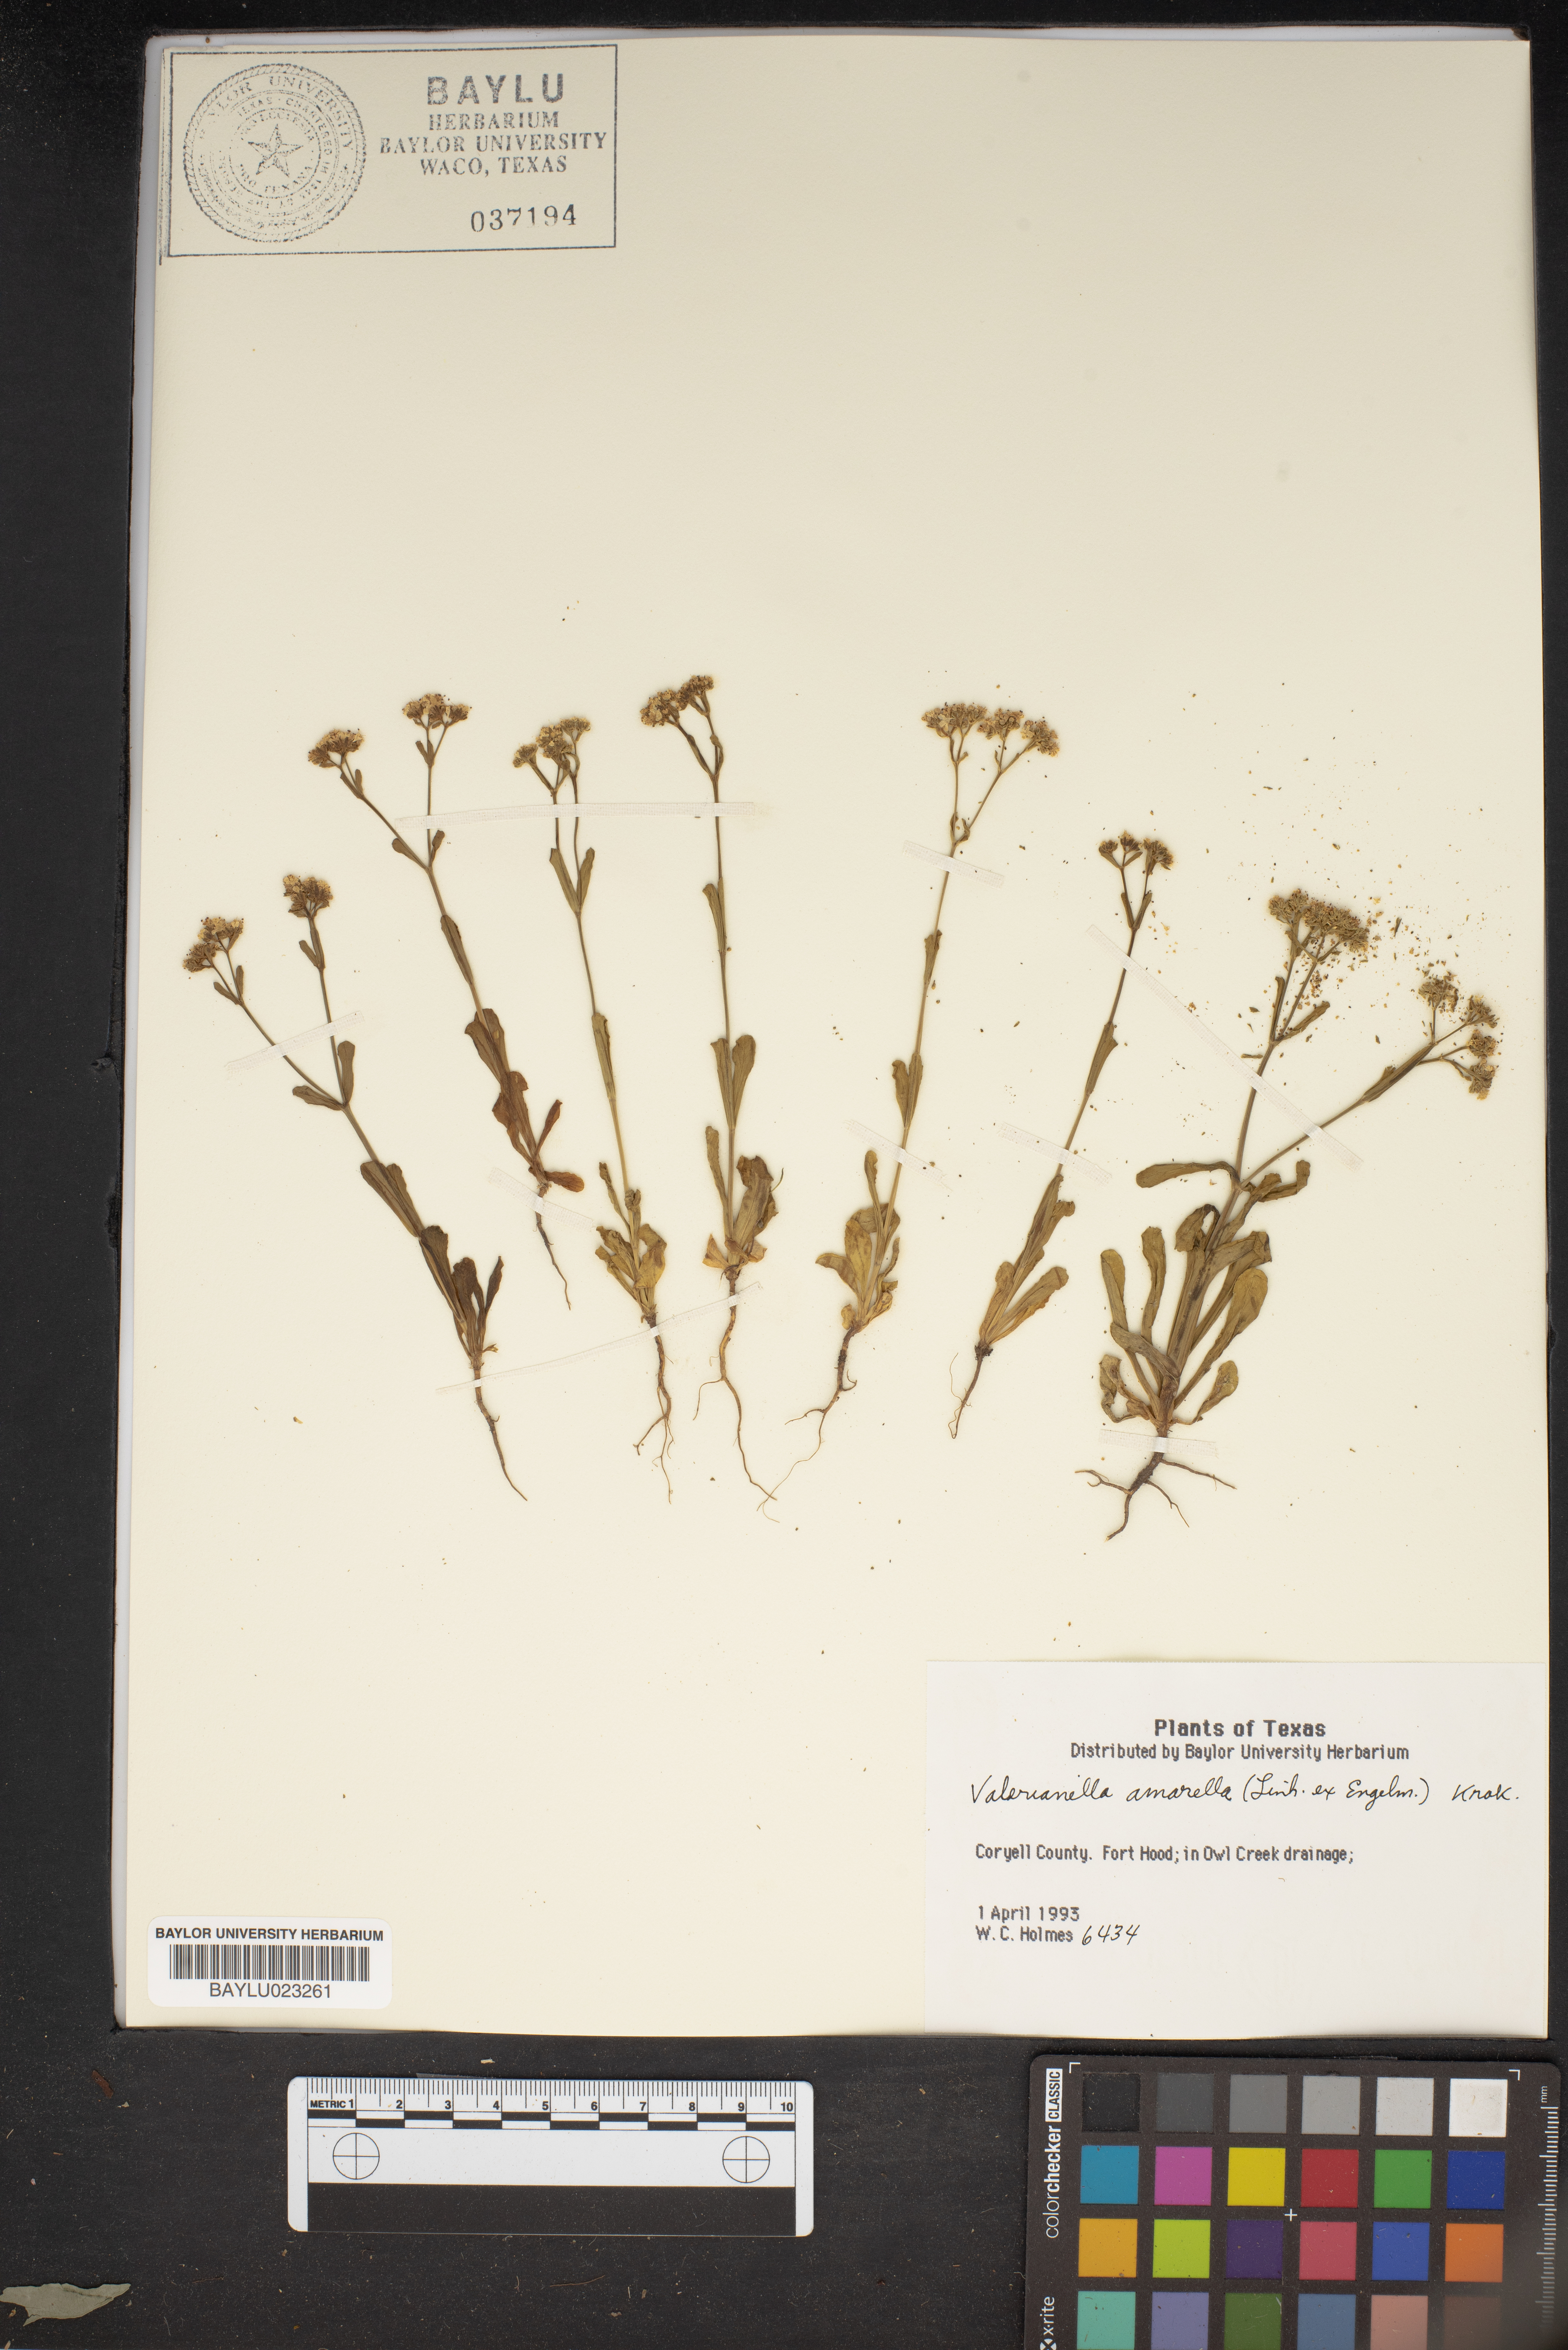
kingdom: Plantae
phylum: Tracheophyta
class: Magnoliopsida
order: Dipsacales
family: Caprifoliaceae
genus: Valerianella
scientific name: Valerianella amarella
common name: Hariy cornsalad
